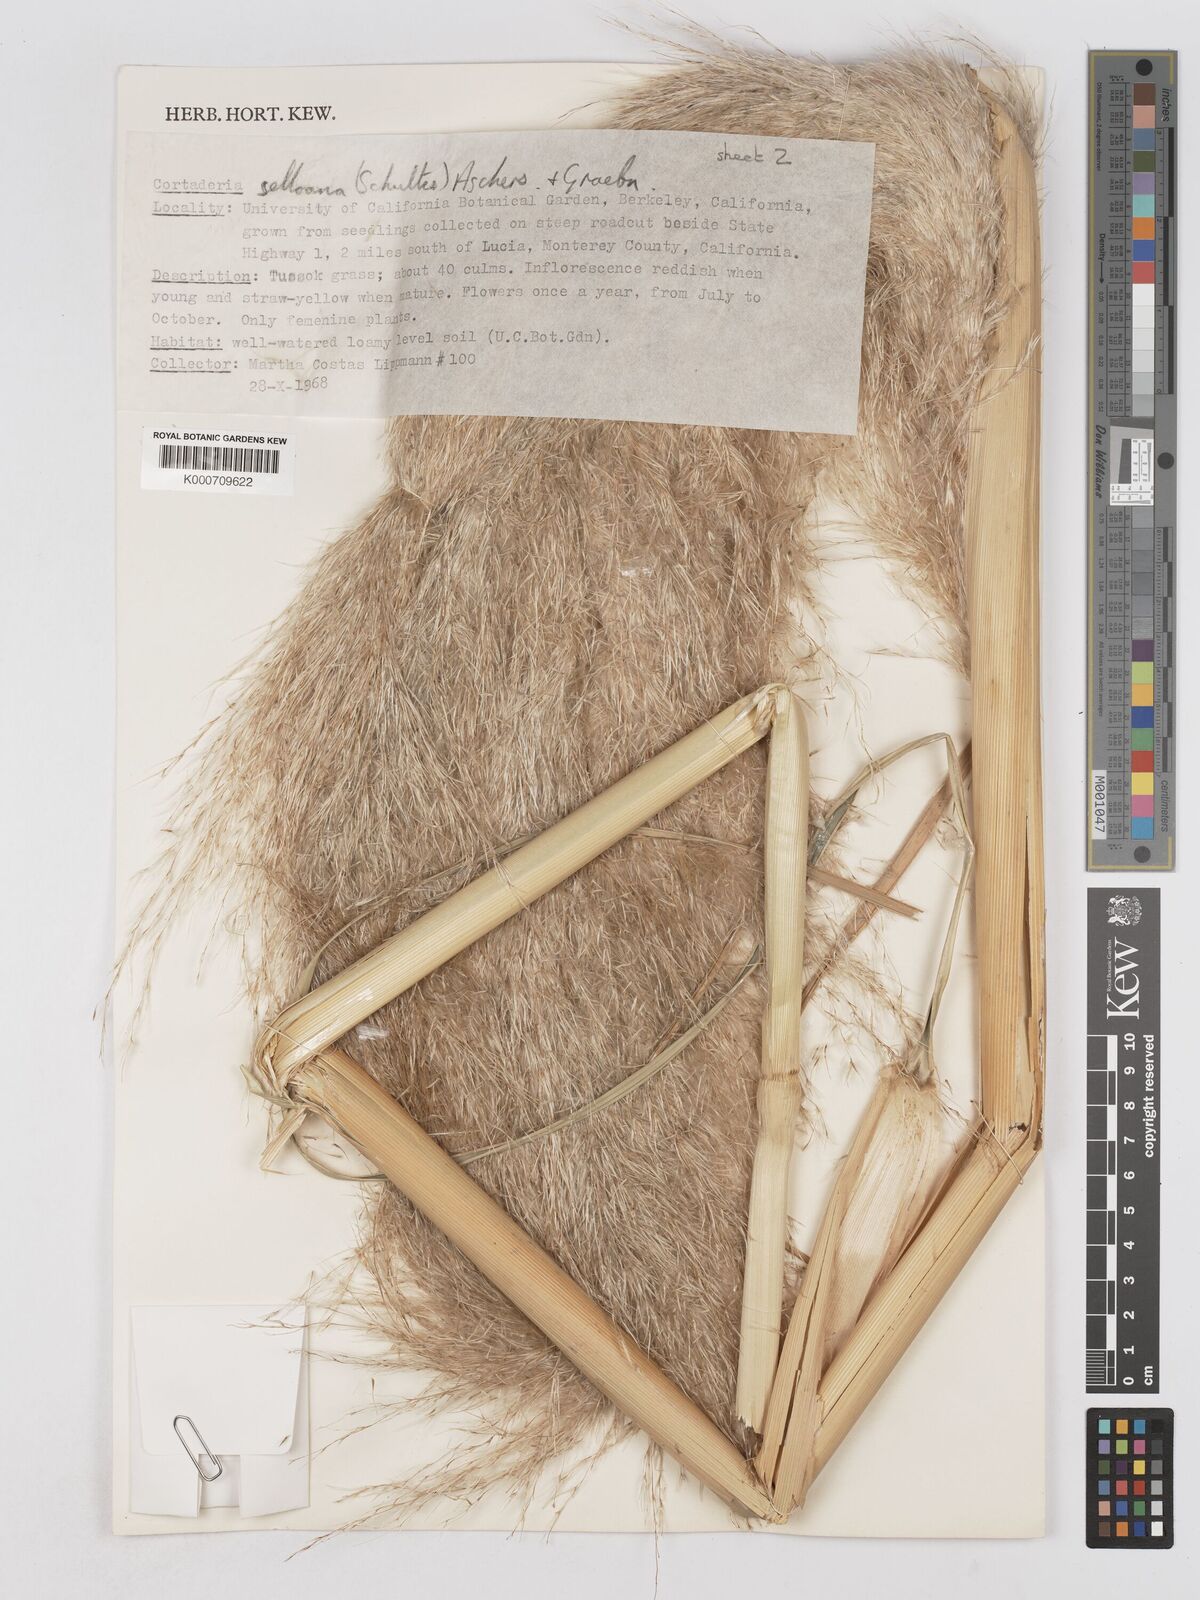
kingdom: Plantae
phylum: Tracheophyta
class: Liliopsida
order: Poales
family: Poaceae
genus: Cortaderia
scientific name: Cortaderia selloana
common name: Uruguayan pampas grass
